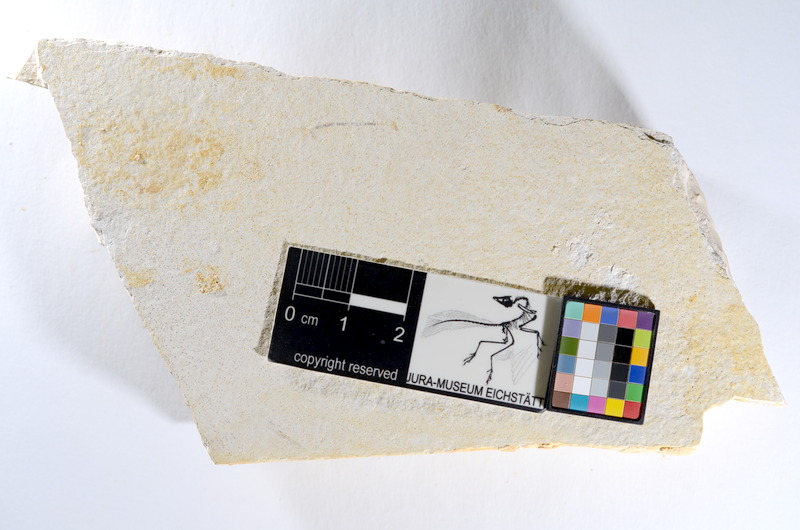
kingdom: Animalia
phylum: Chordata
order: Salmoniformes
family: Orthogonikleithridae
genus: Orthogonikleithrus
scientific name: Orthogonikleithrus hoelli
